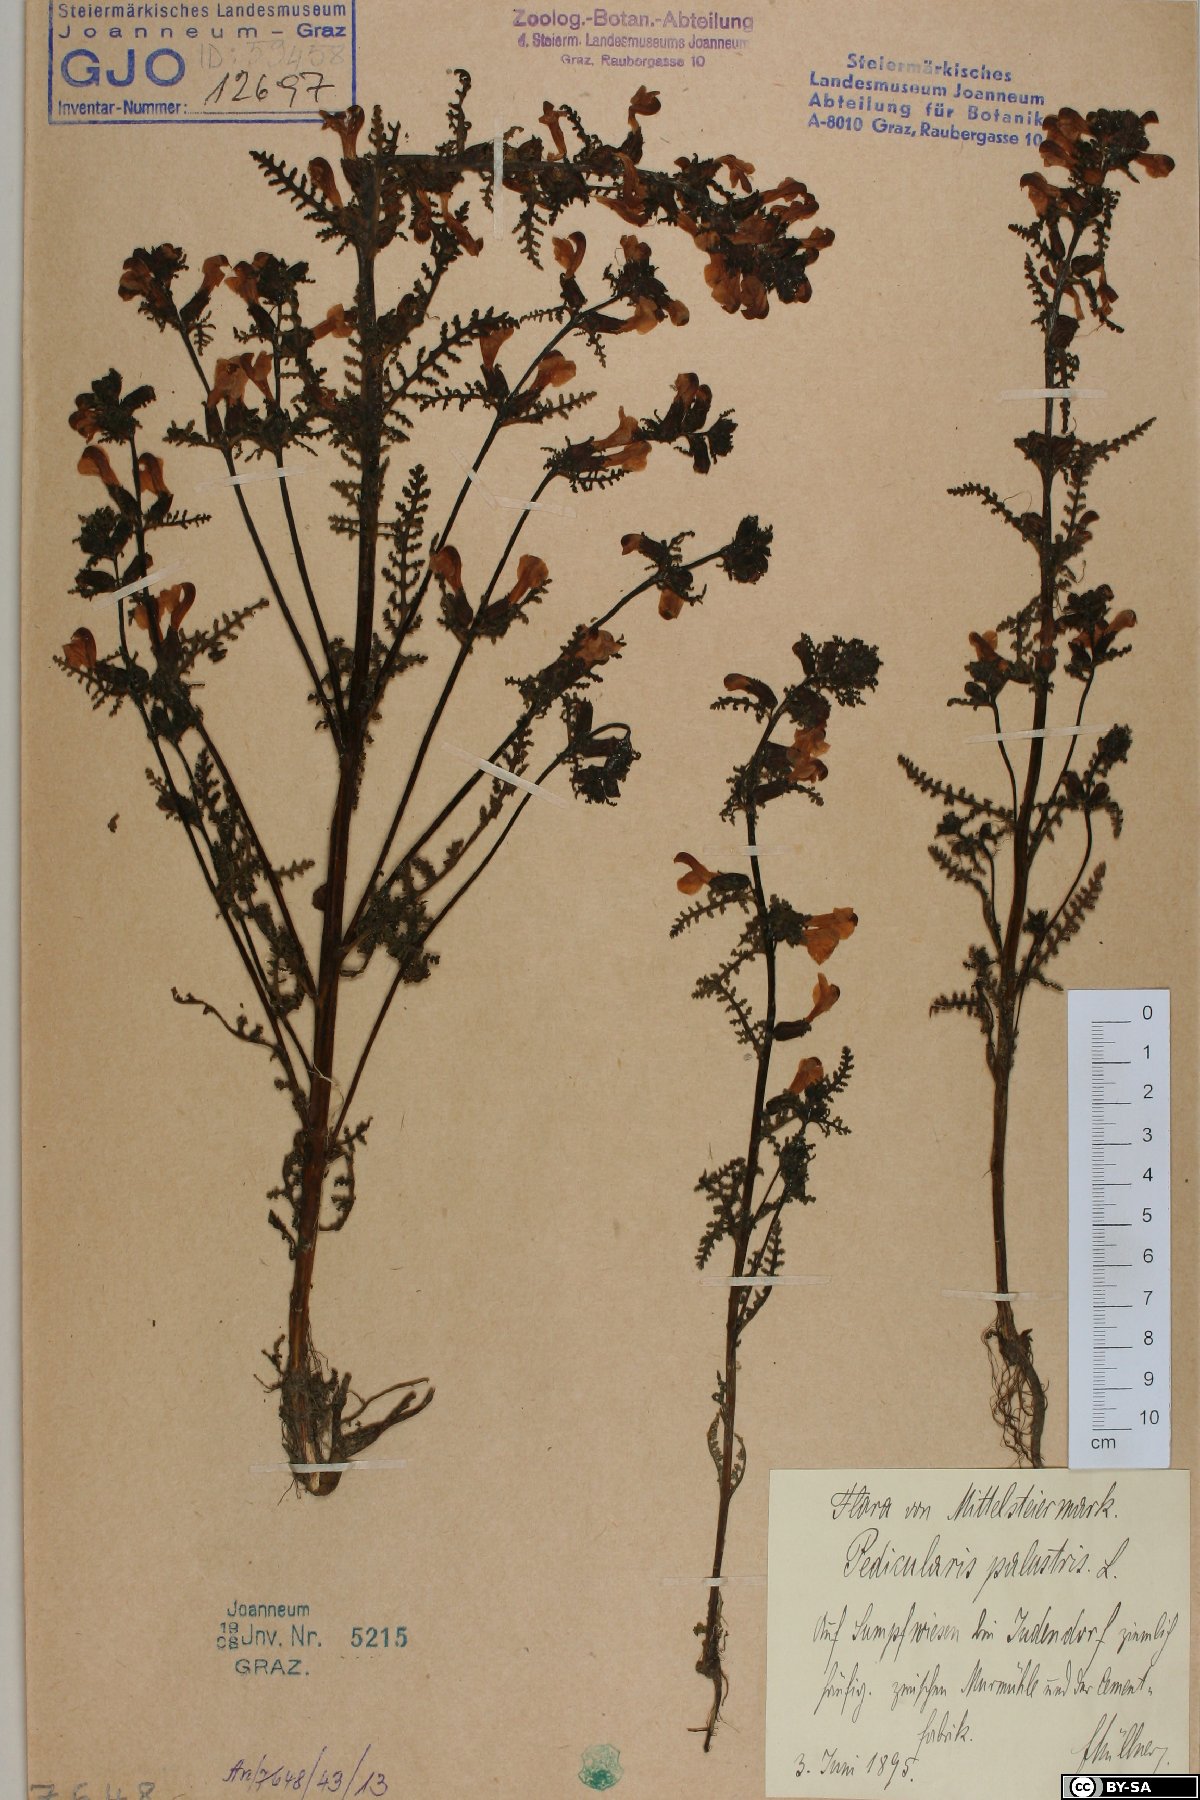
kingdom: Plantae
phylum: Tracheophyta
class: Magnoliopsida
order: Lamiales
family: Orobanchaceae
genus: Pedicularis
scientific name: Pedicularis palustris
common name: Marsh lousewort
